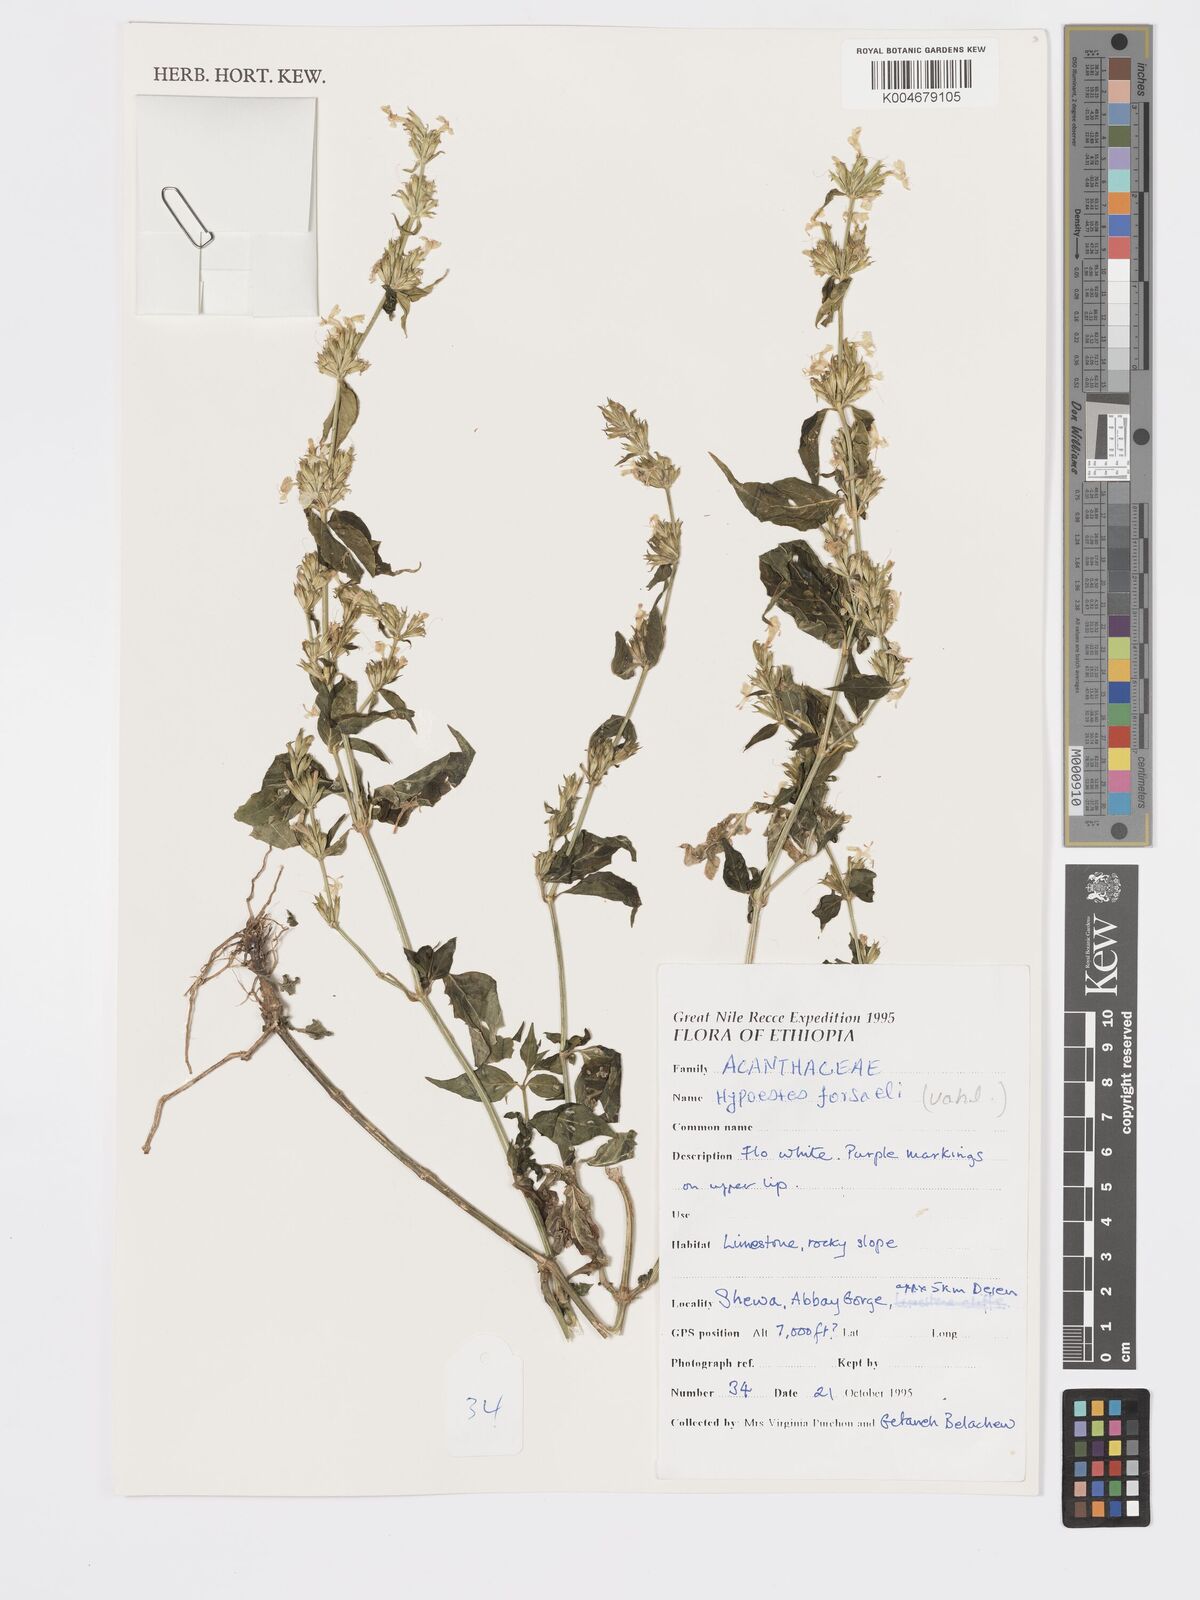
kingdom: Plantae
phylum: Tracheophyta
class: Magnoliopsida
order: Lamiales
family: Acanthaceae
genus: Hypoestes
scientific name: Hypoestes forskaolii
